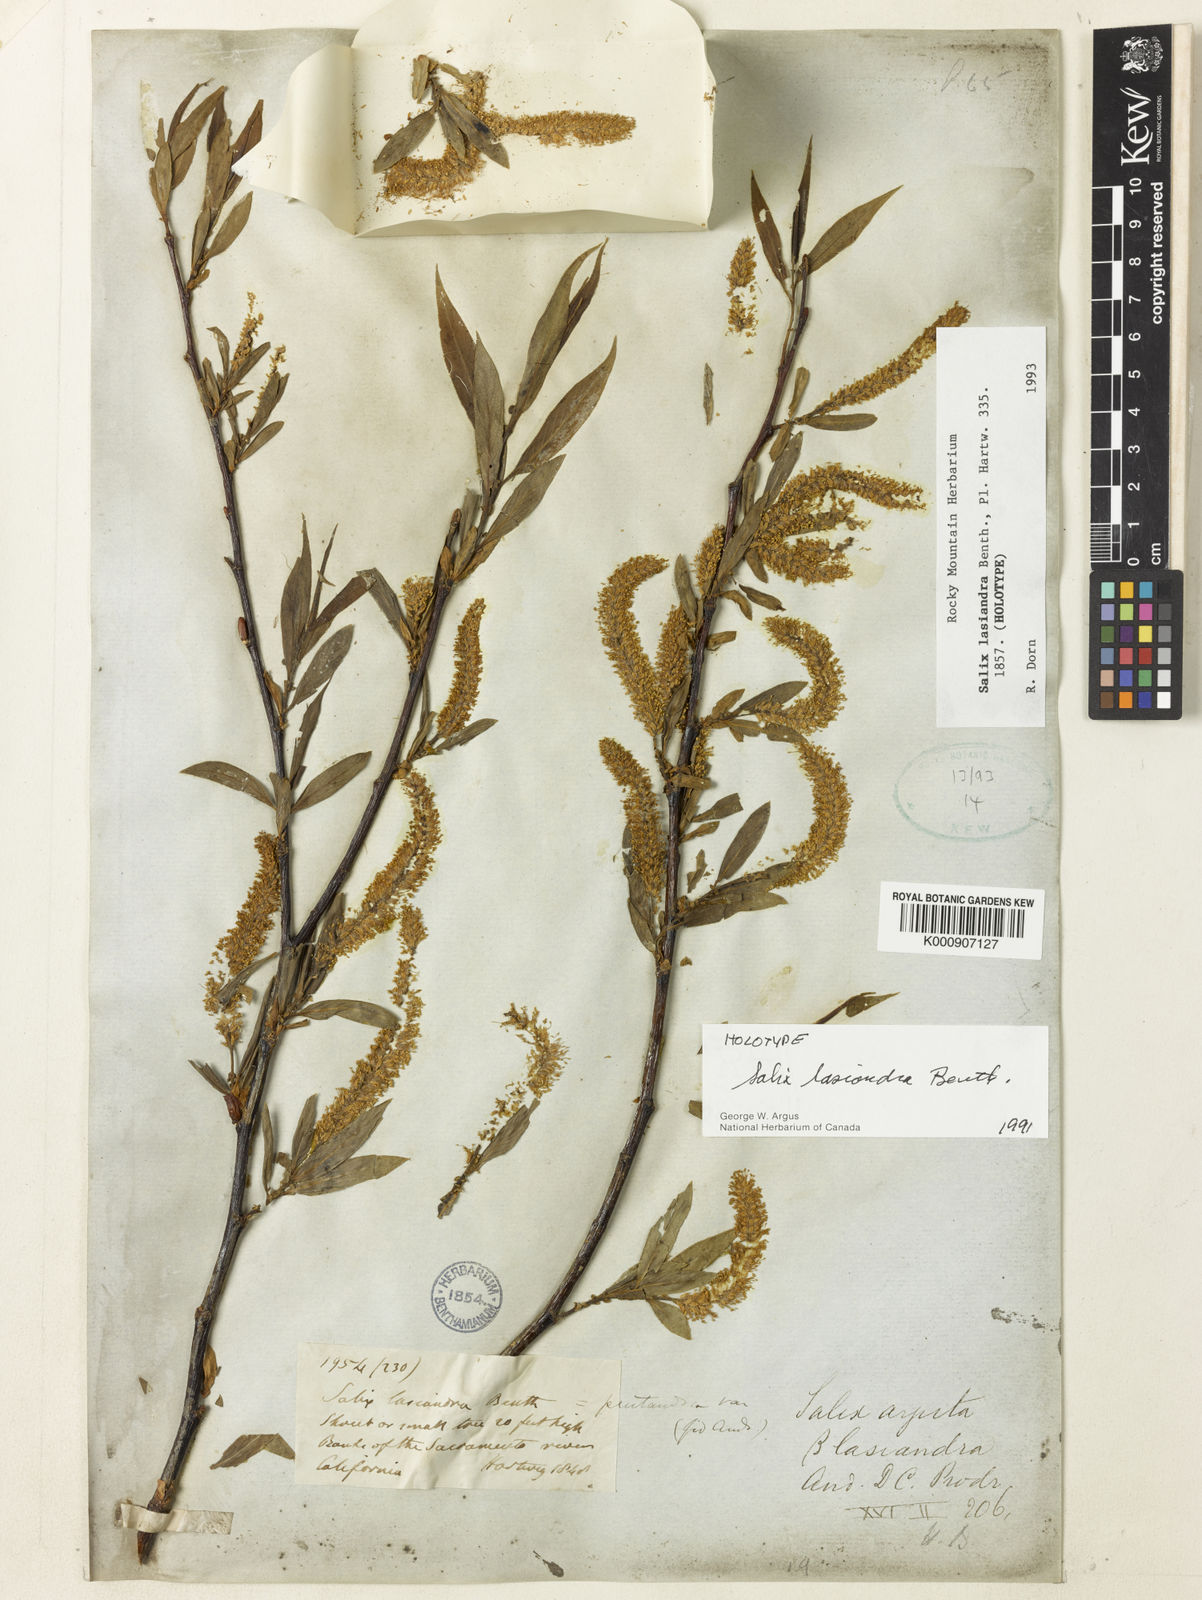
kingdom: Plantae
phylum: Tracheophyta
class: Magnoliopsida
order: Malpighiales
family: Salicaceae
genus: Salix
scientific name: Salix lucida
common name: Shining willow
